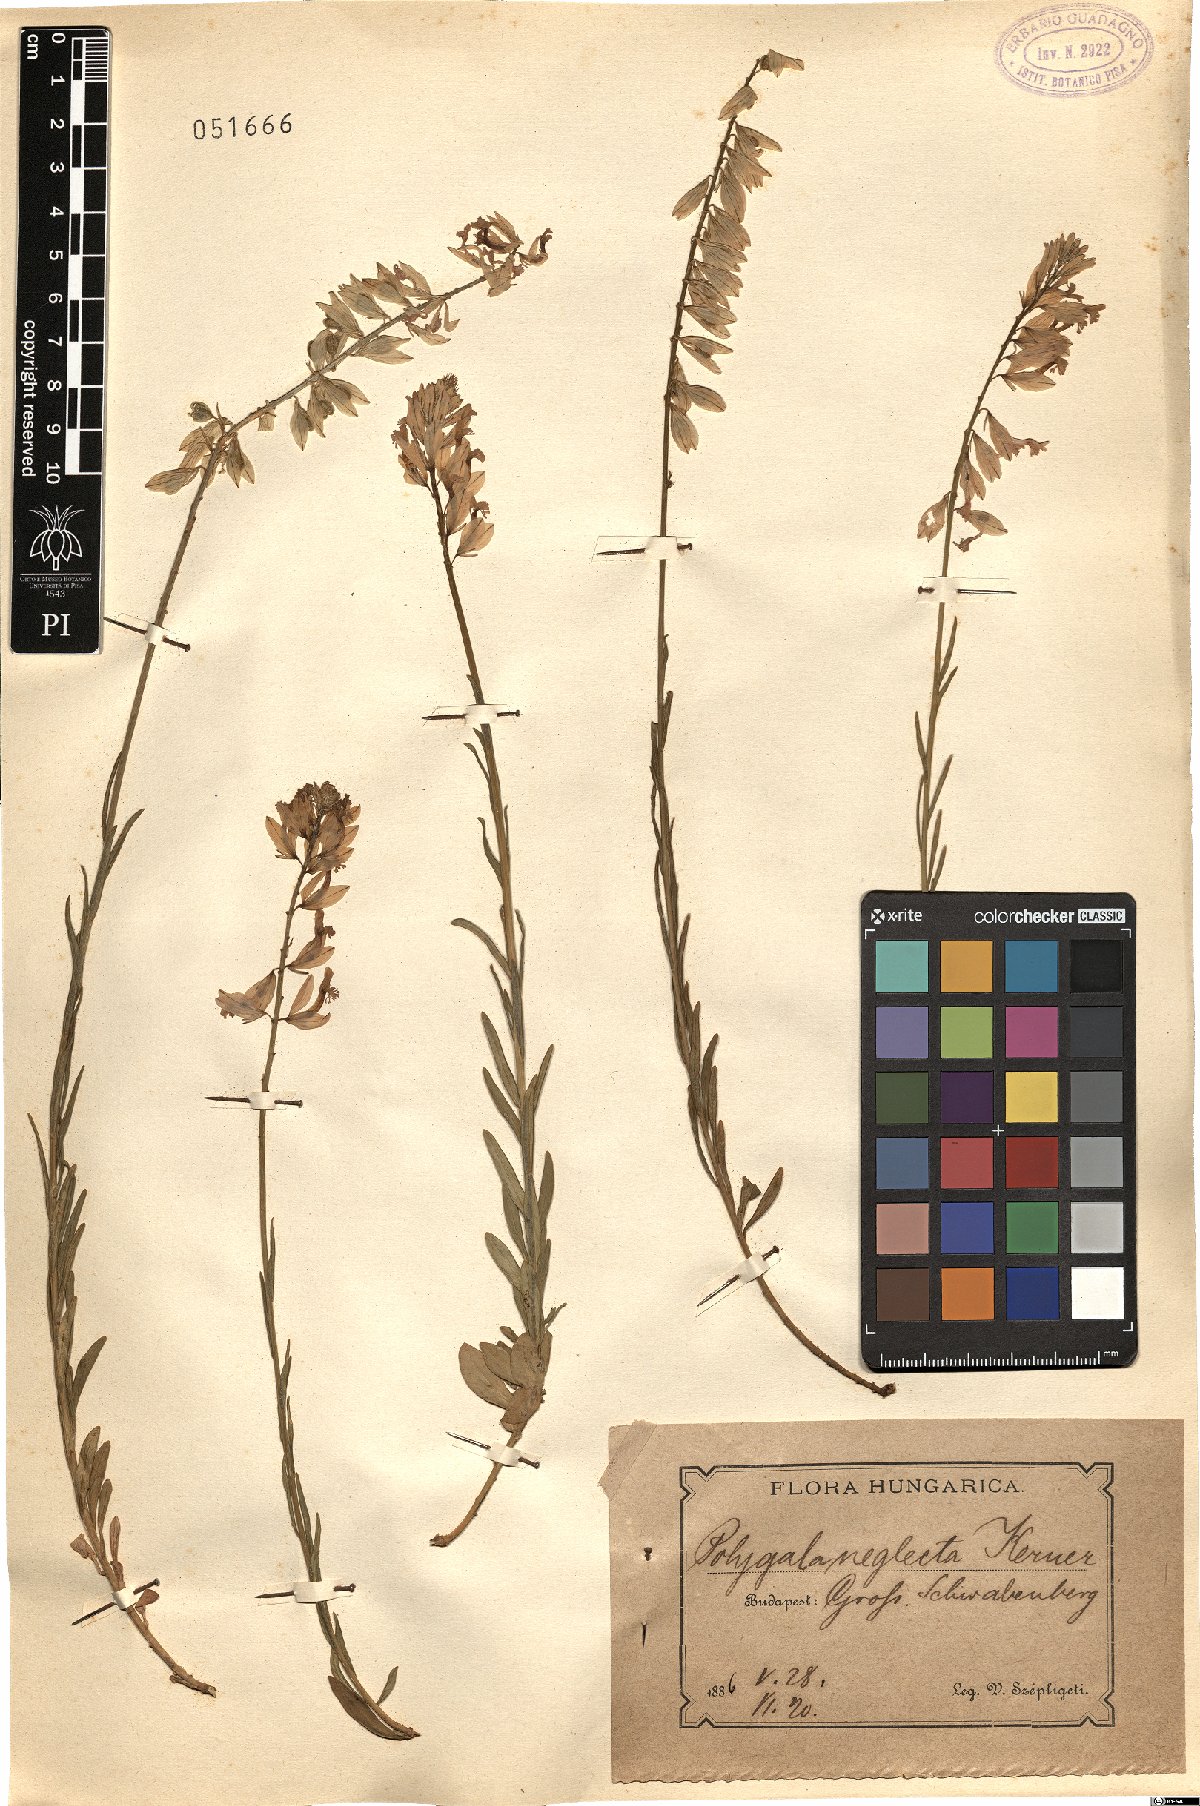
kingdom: Plantae
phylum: Tracheophyta
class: Magnoliopsida
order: Fabales
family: Polygalaceae
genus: Polygala
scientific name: Polygala major
